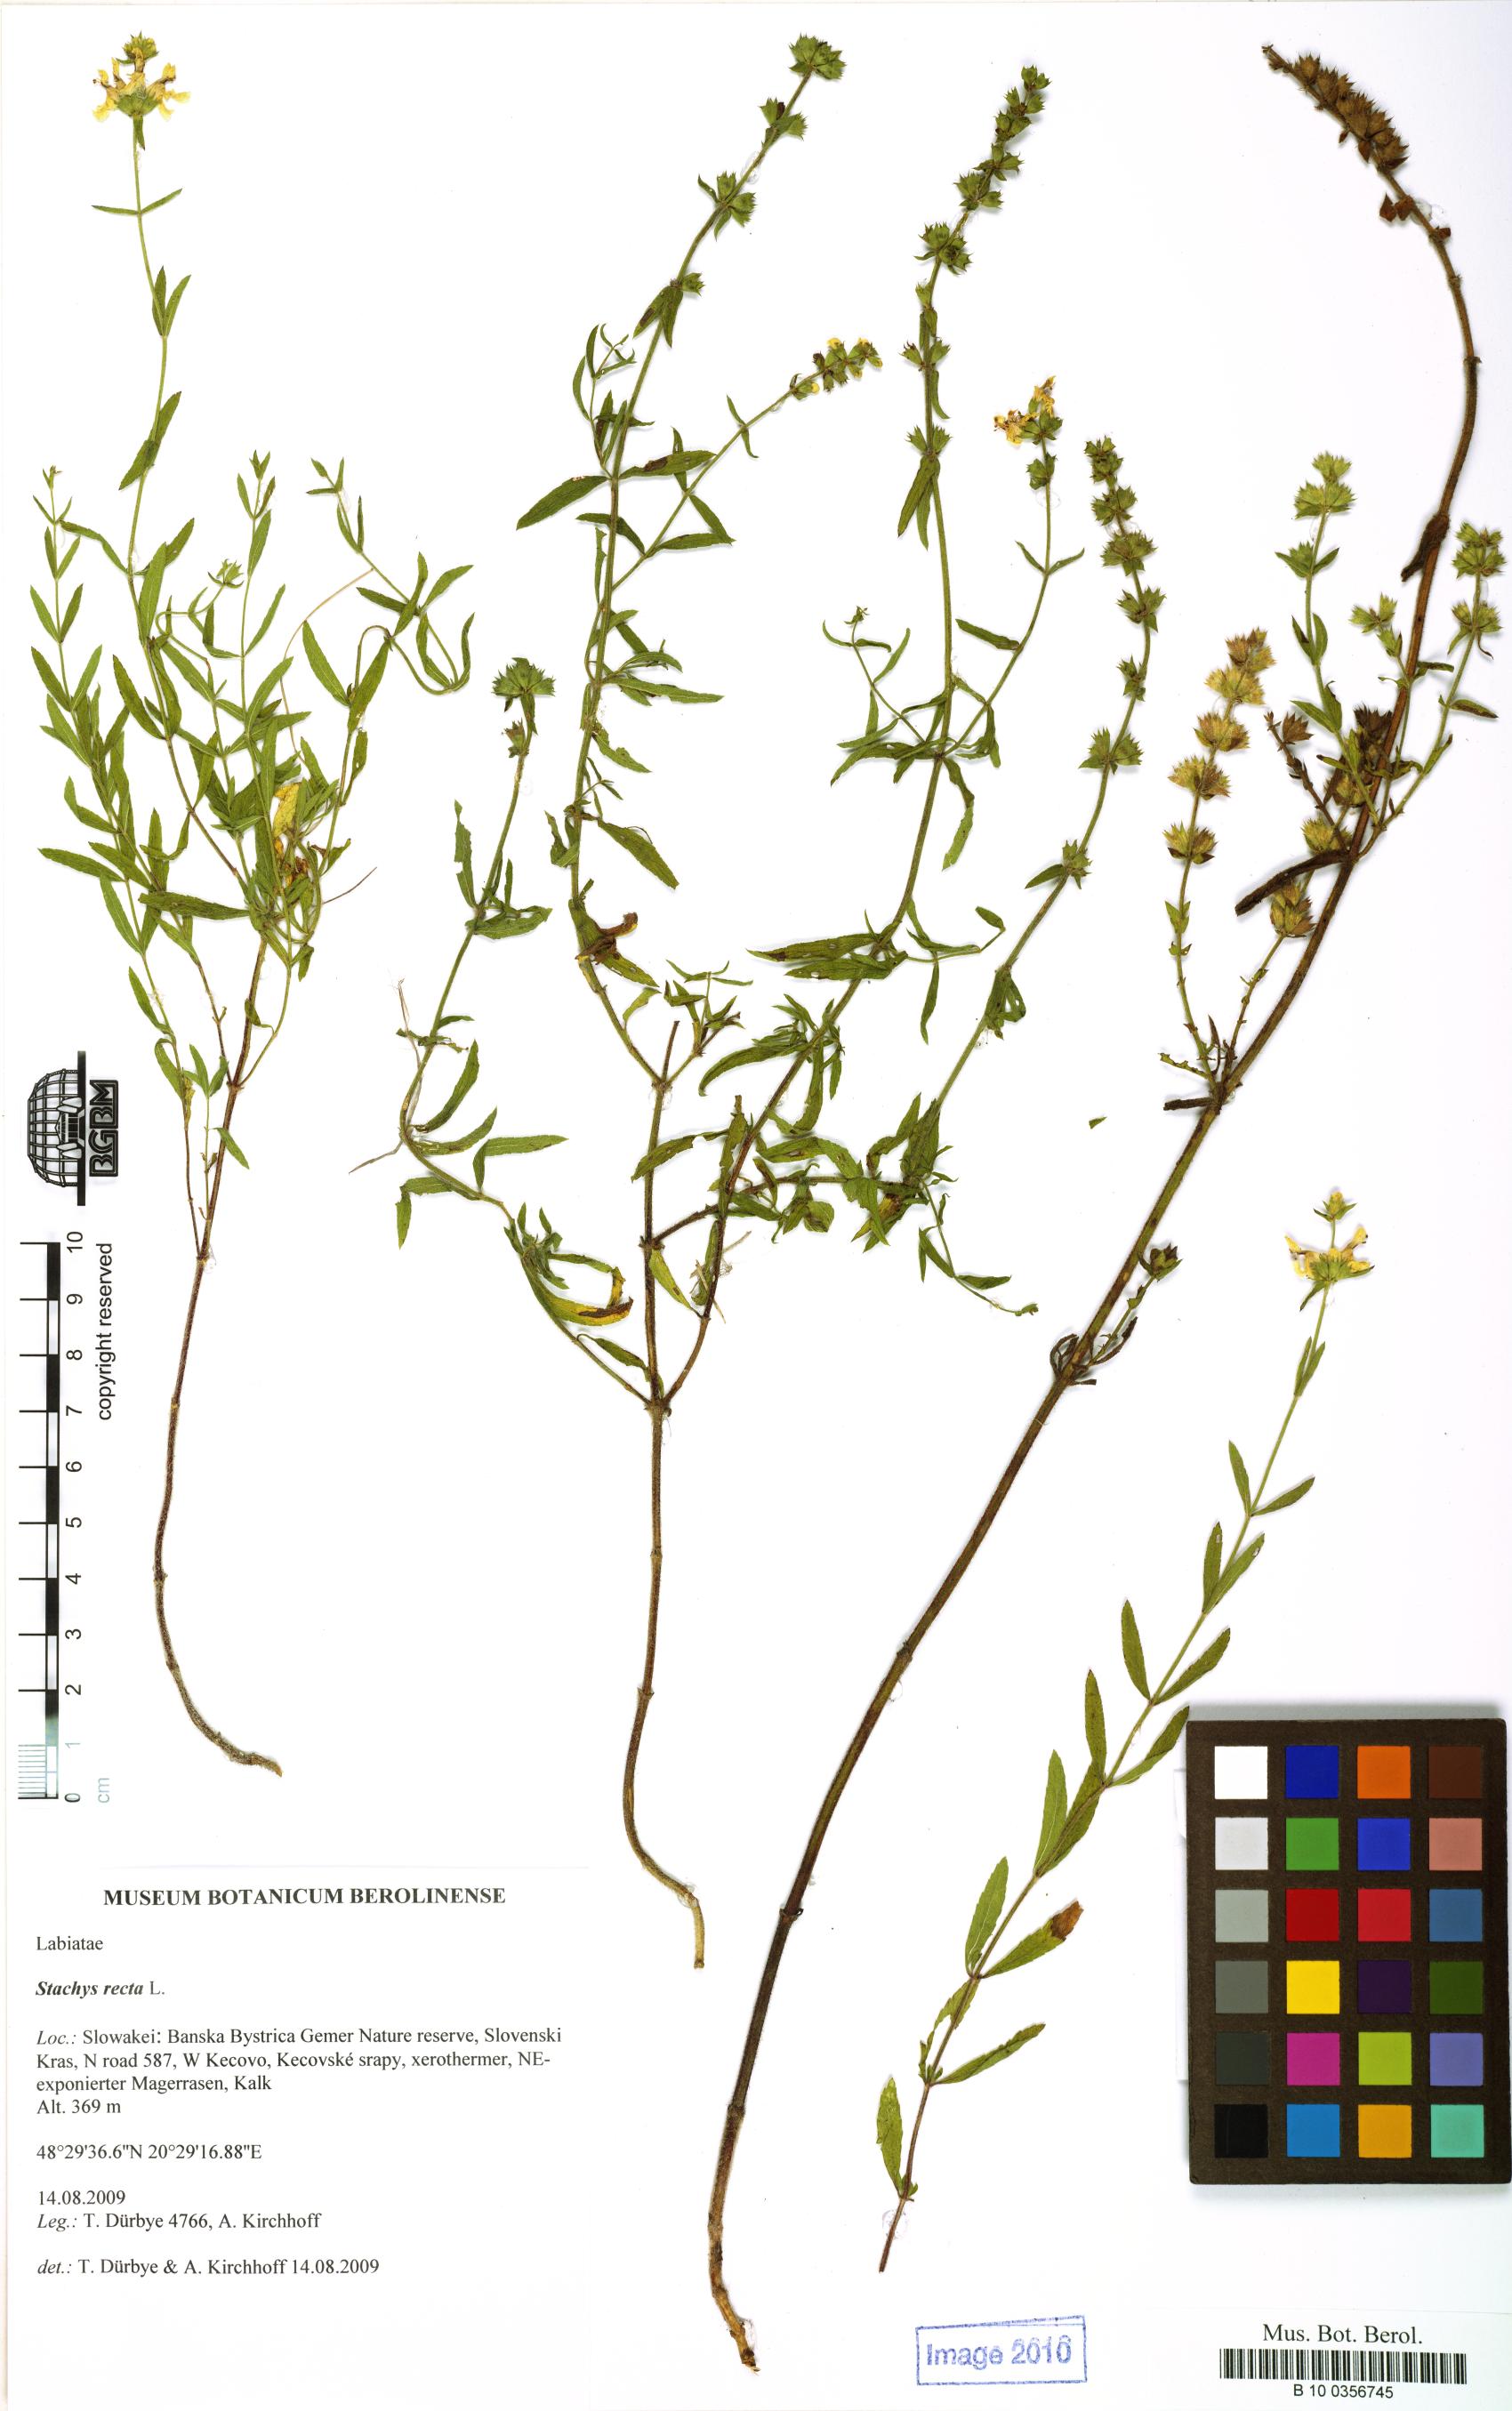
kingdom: Plantae
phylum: Tracheophyta
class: Magnoliopsida
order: Lamiales
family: Lamiaceae
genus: Stachys
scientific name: Stachys recta
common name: Perennial yellow-woundwort
